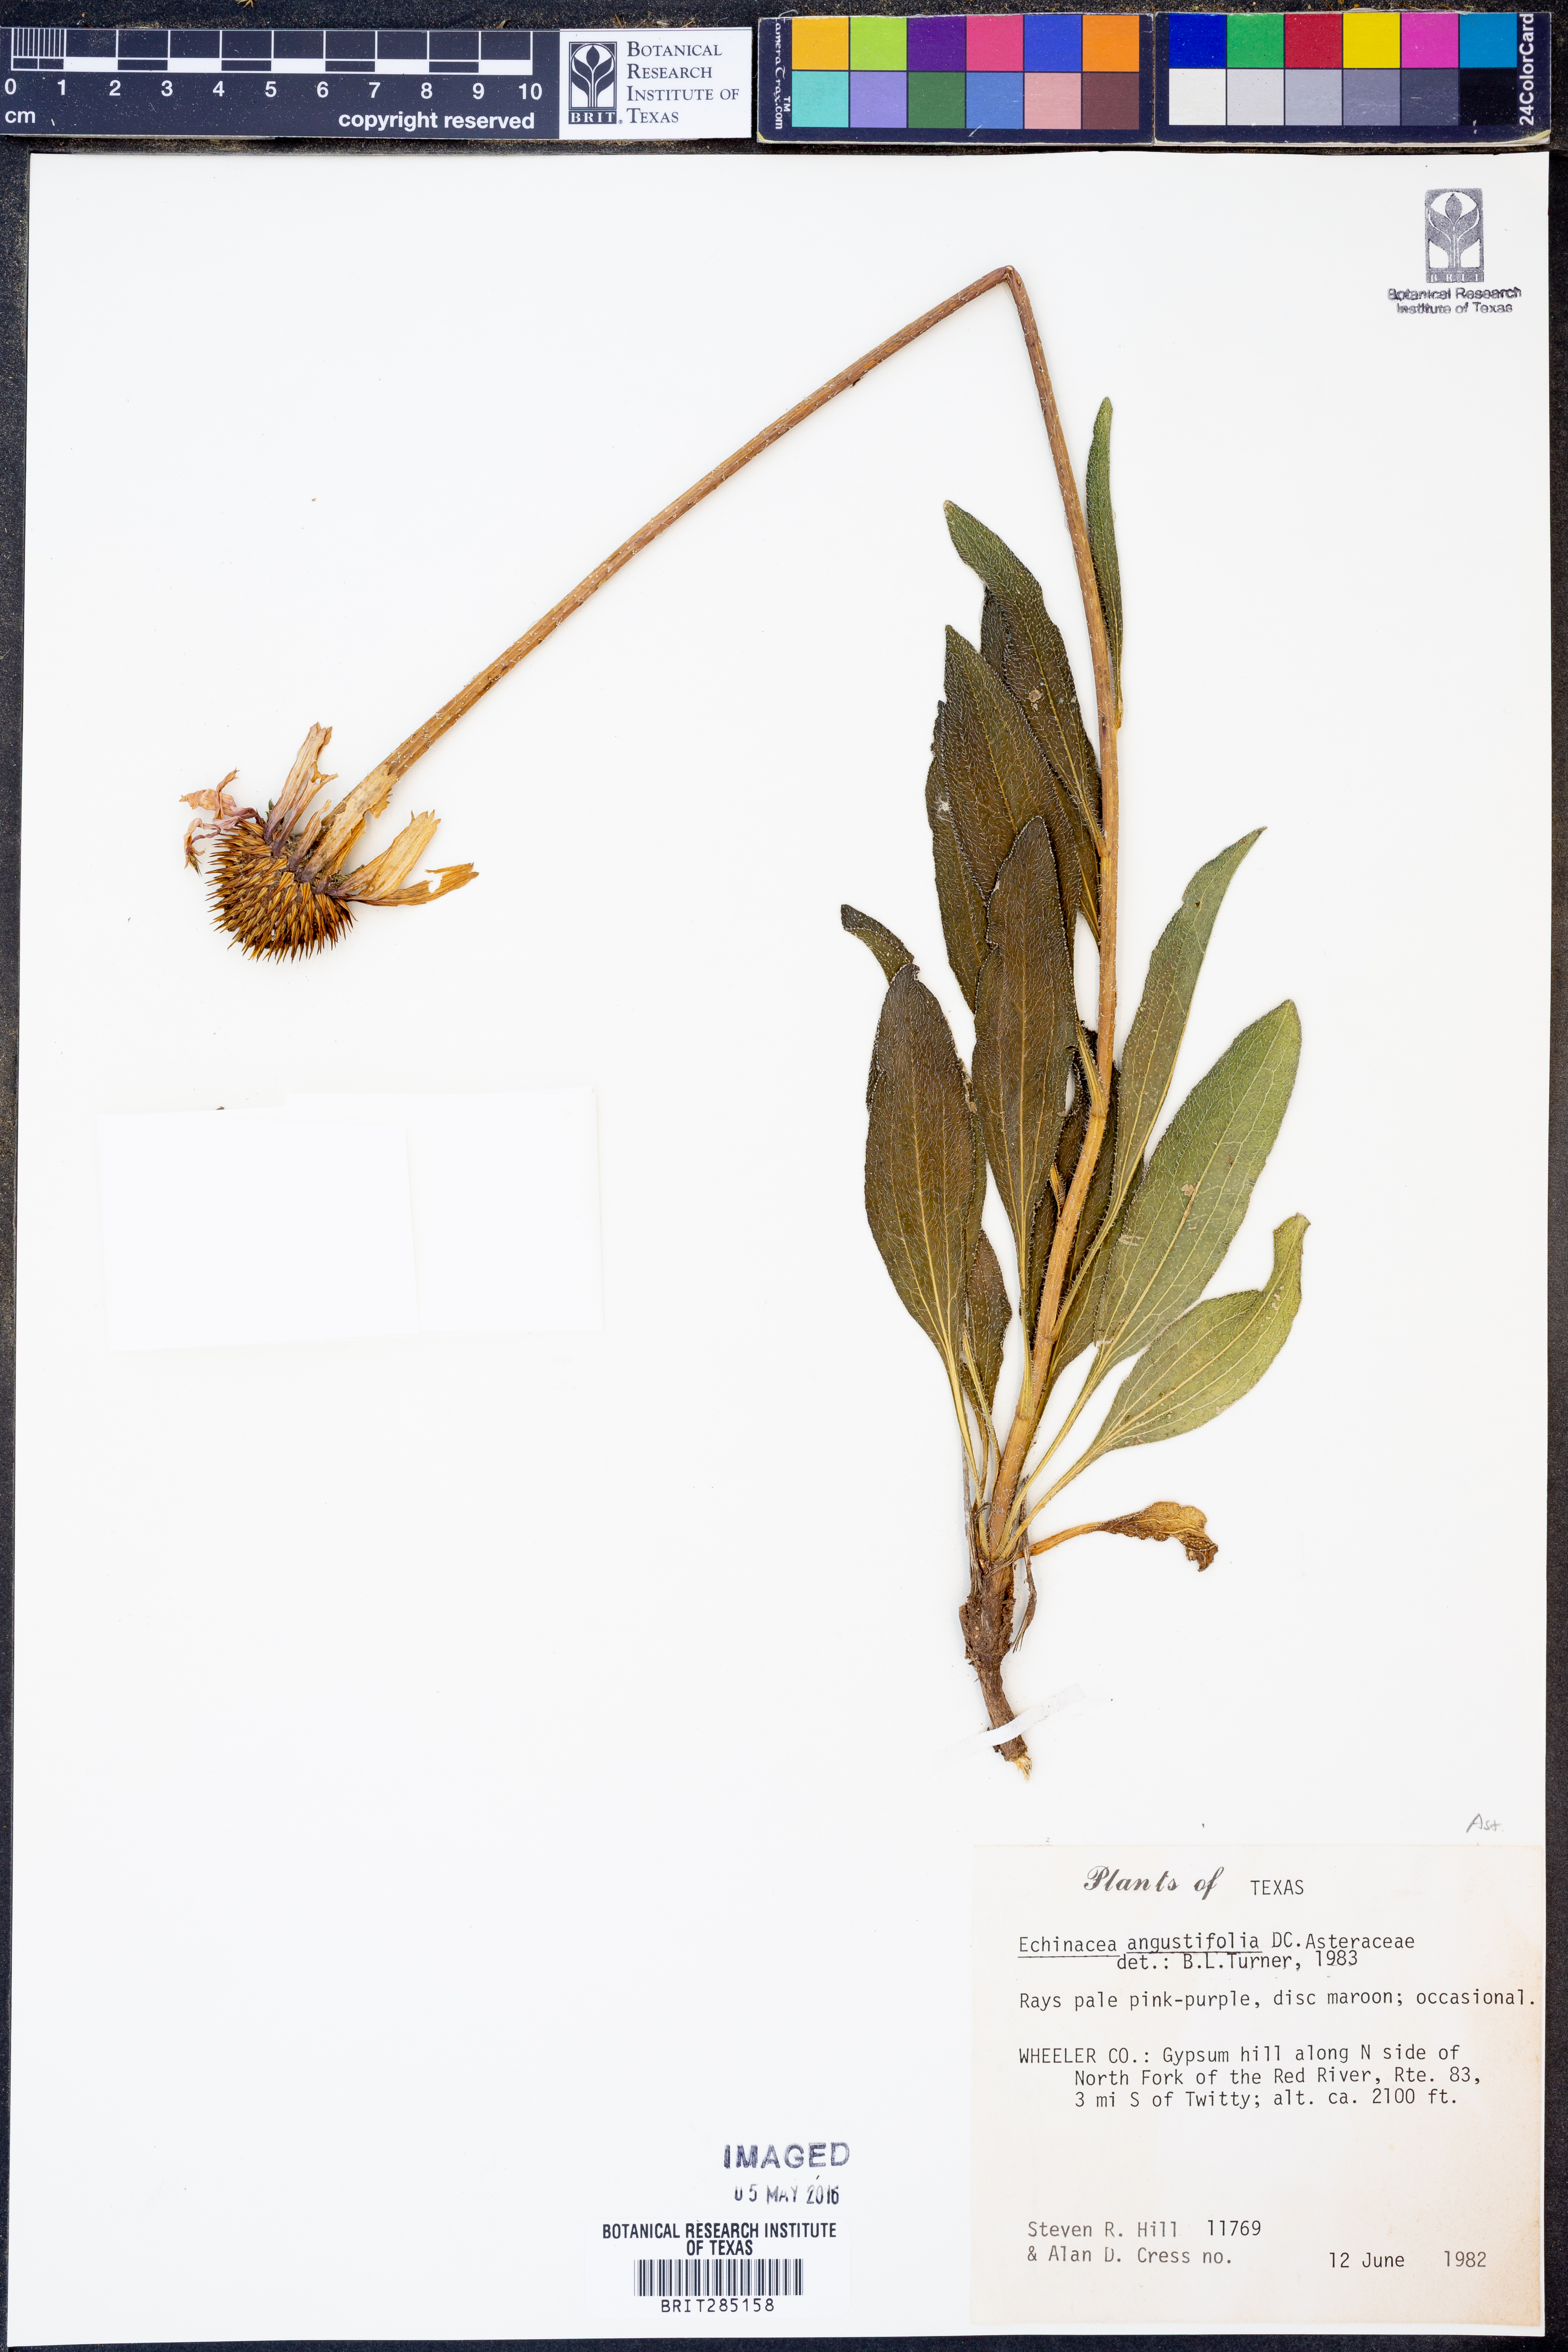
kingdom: Plantae
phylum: Tracheophyta
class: Magnoliopsida
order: Asterales
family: Asteraceae
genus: Echinacea
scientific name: Echinacea angustifolia
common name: Black-sampson echinacea
